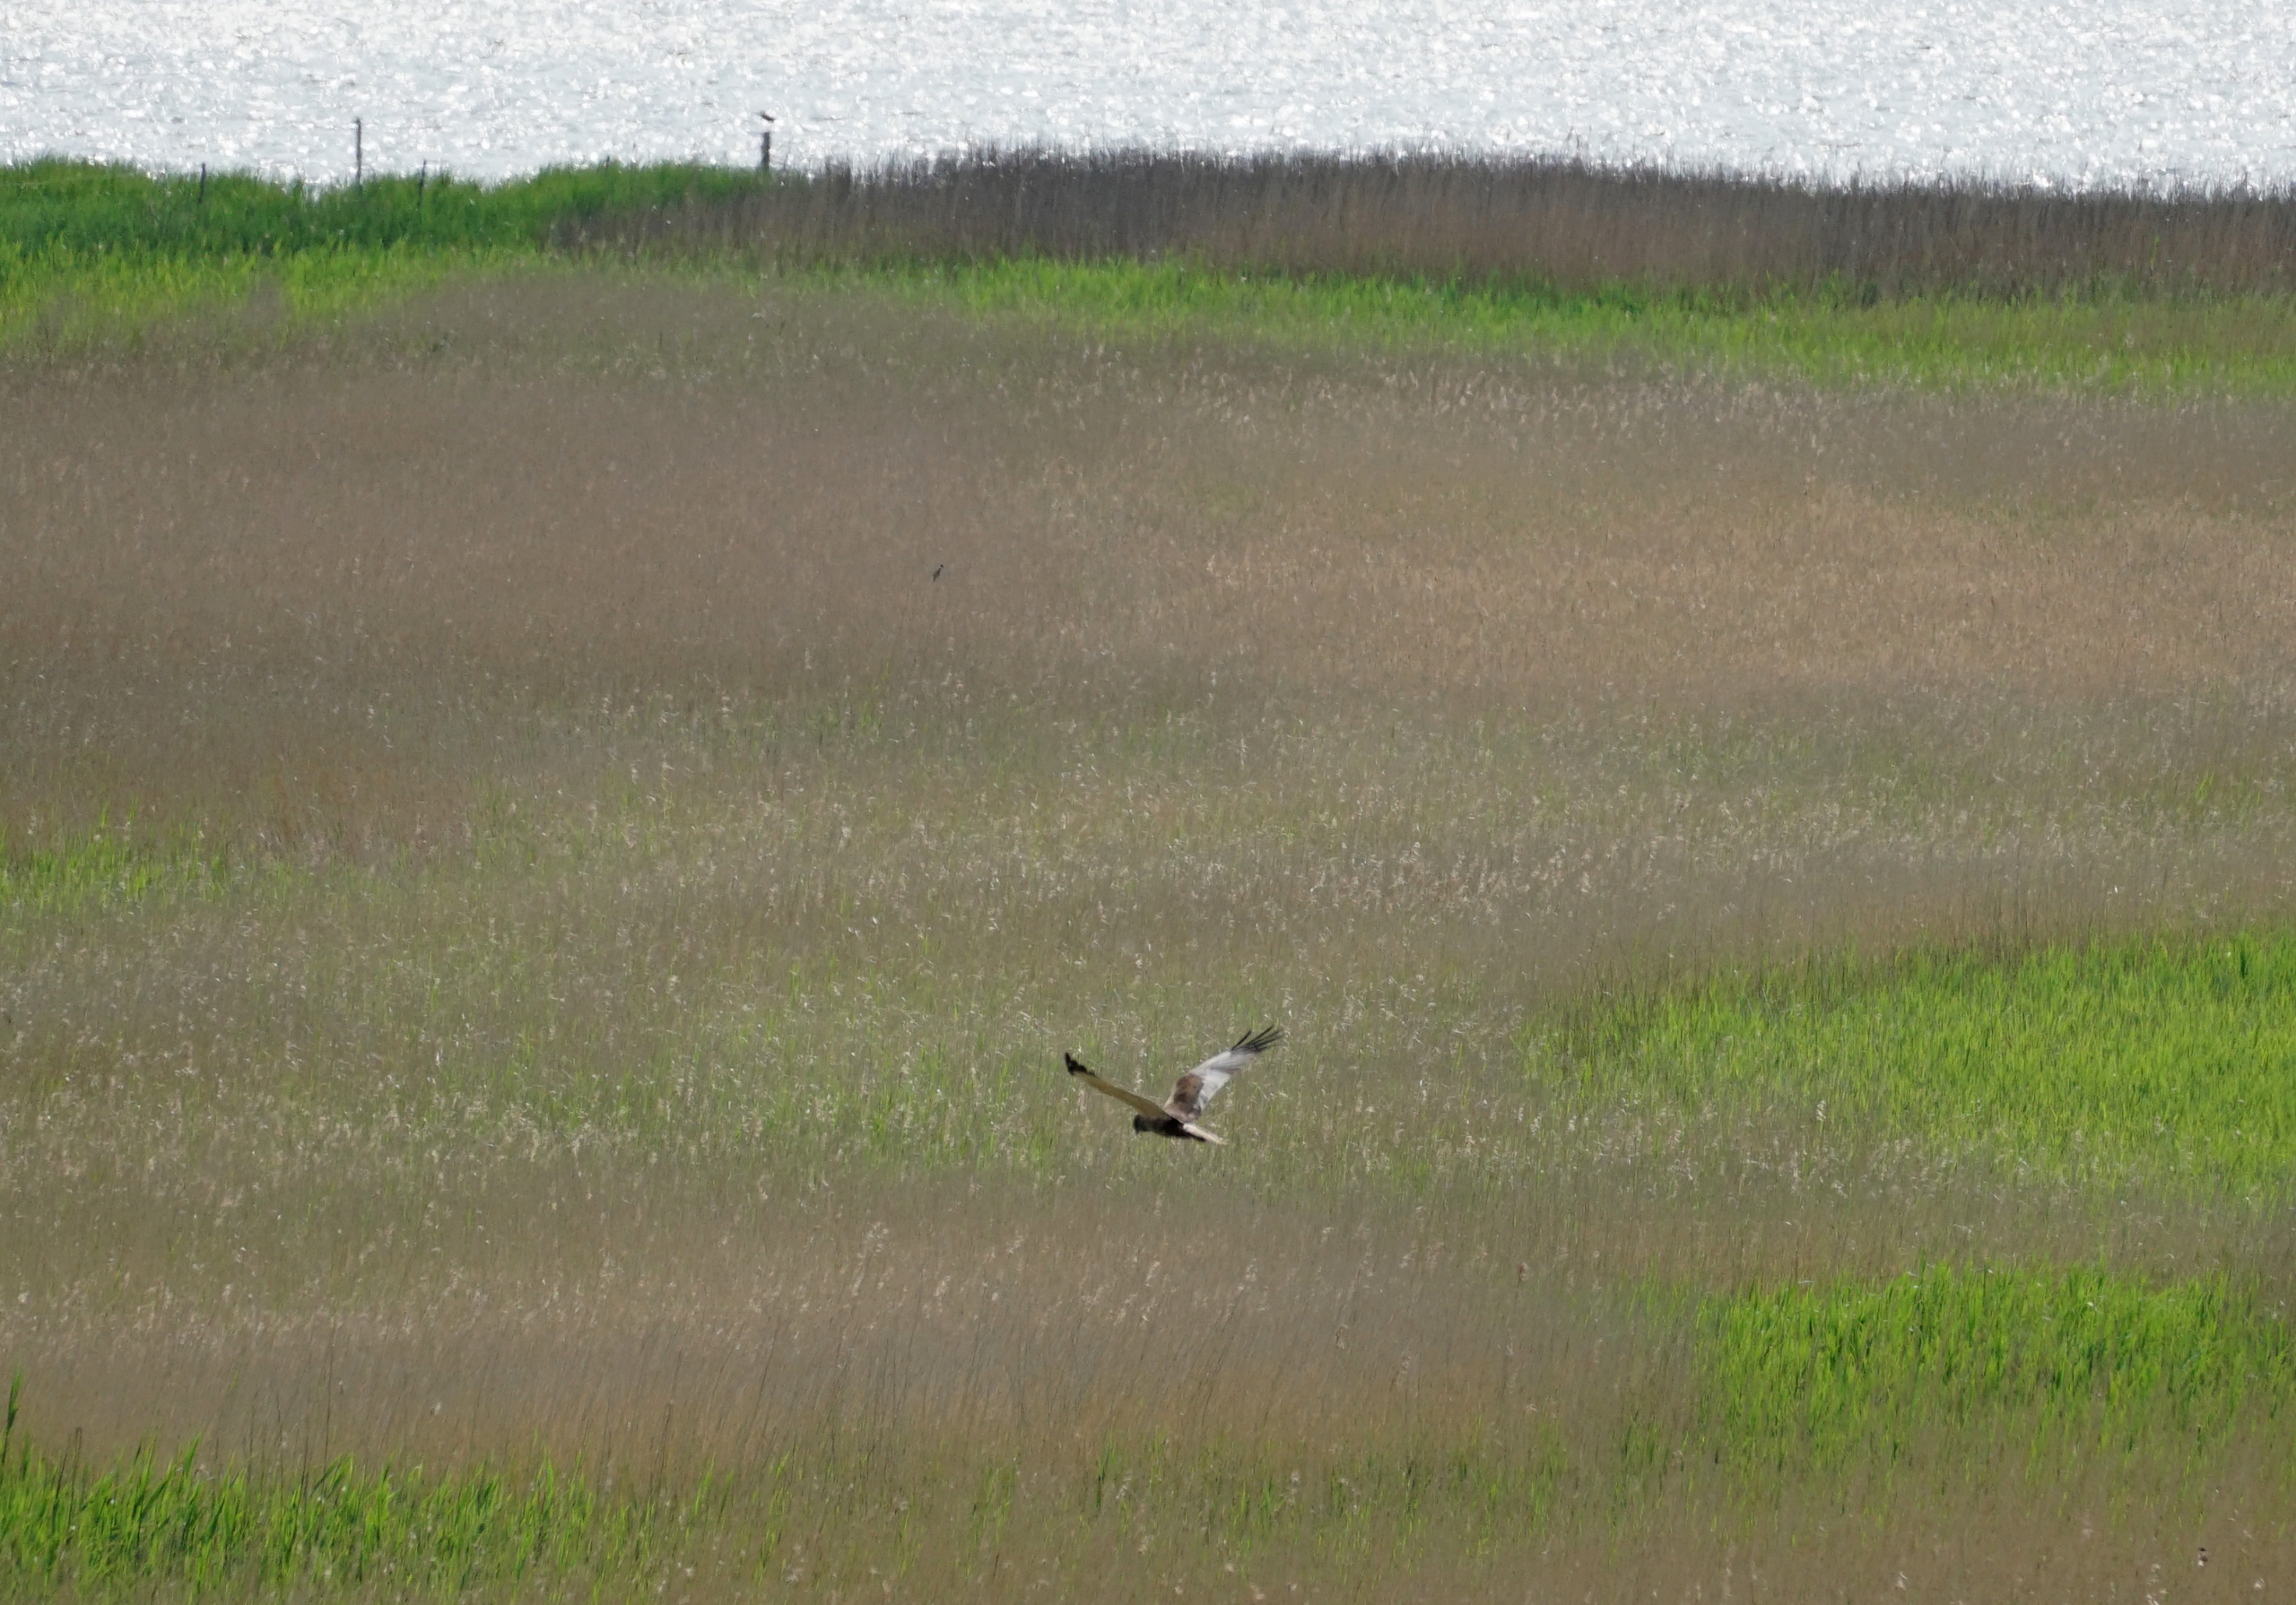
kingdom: Animalia
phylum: Chordata
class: Aves
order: Accipitriformes
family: Accipitridae
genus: Circus
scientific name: Circus aeruginosus
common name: Rørhøg
